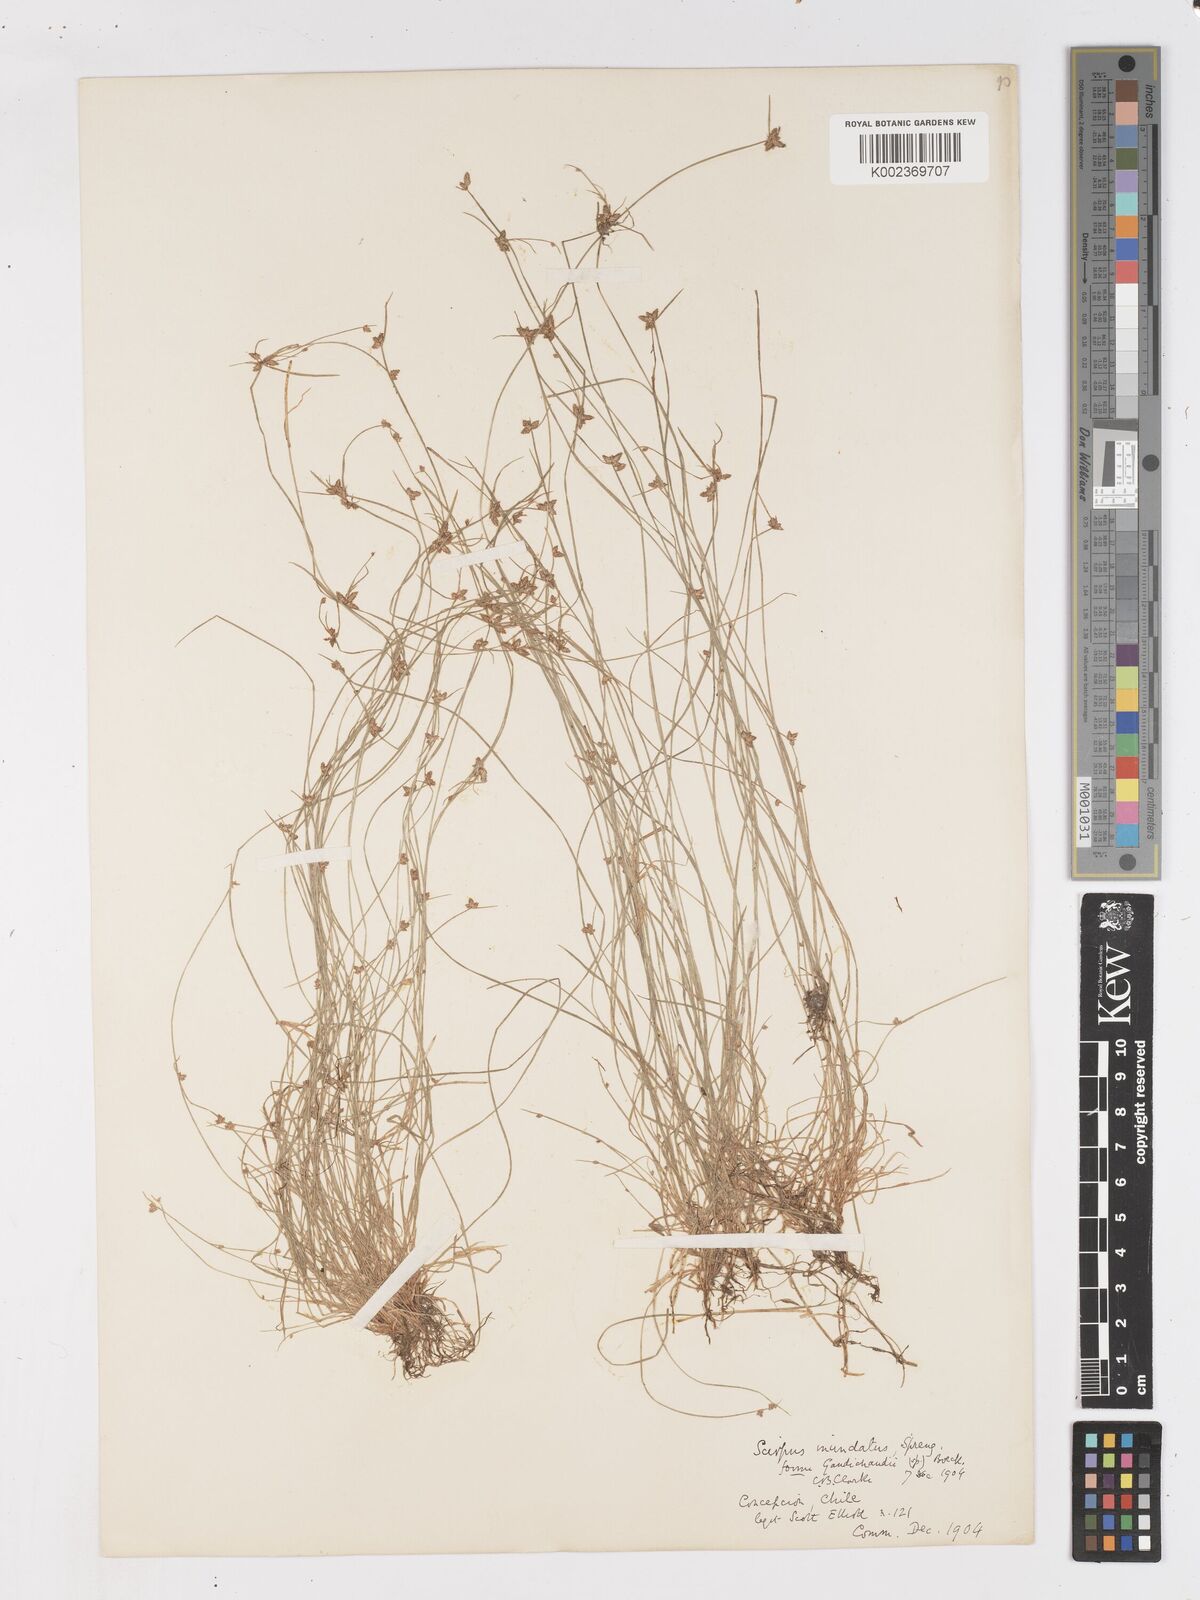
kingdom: Plantae
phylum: Tracheophyta
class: Liliopsida
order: Poales
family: Cyperaceae
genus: Isolepis
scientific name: Isolepis inundata
